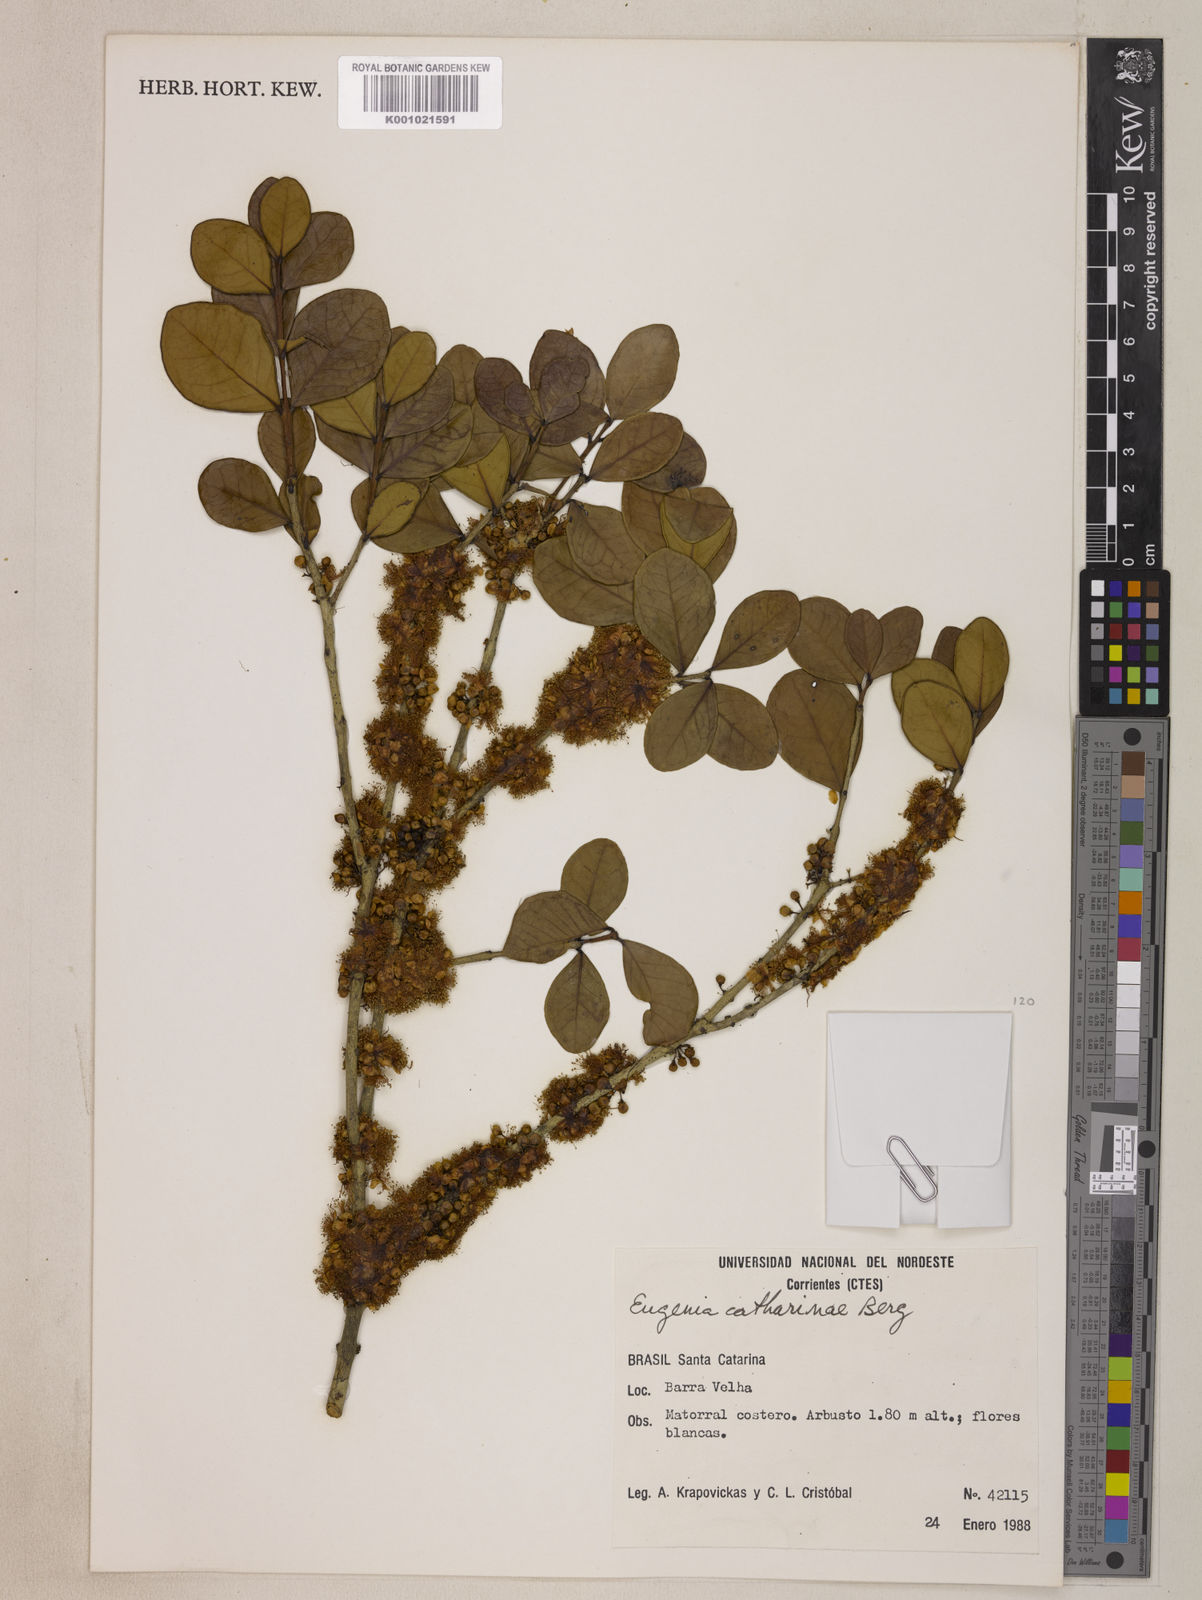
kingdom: Plantae
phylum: Tracheophyta
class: Magnoliopsida
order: Myrtales
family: Myrtaceae
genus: Eugenia
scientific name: Eugenia catharinae
